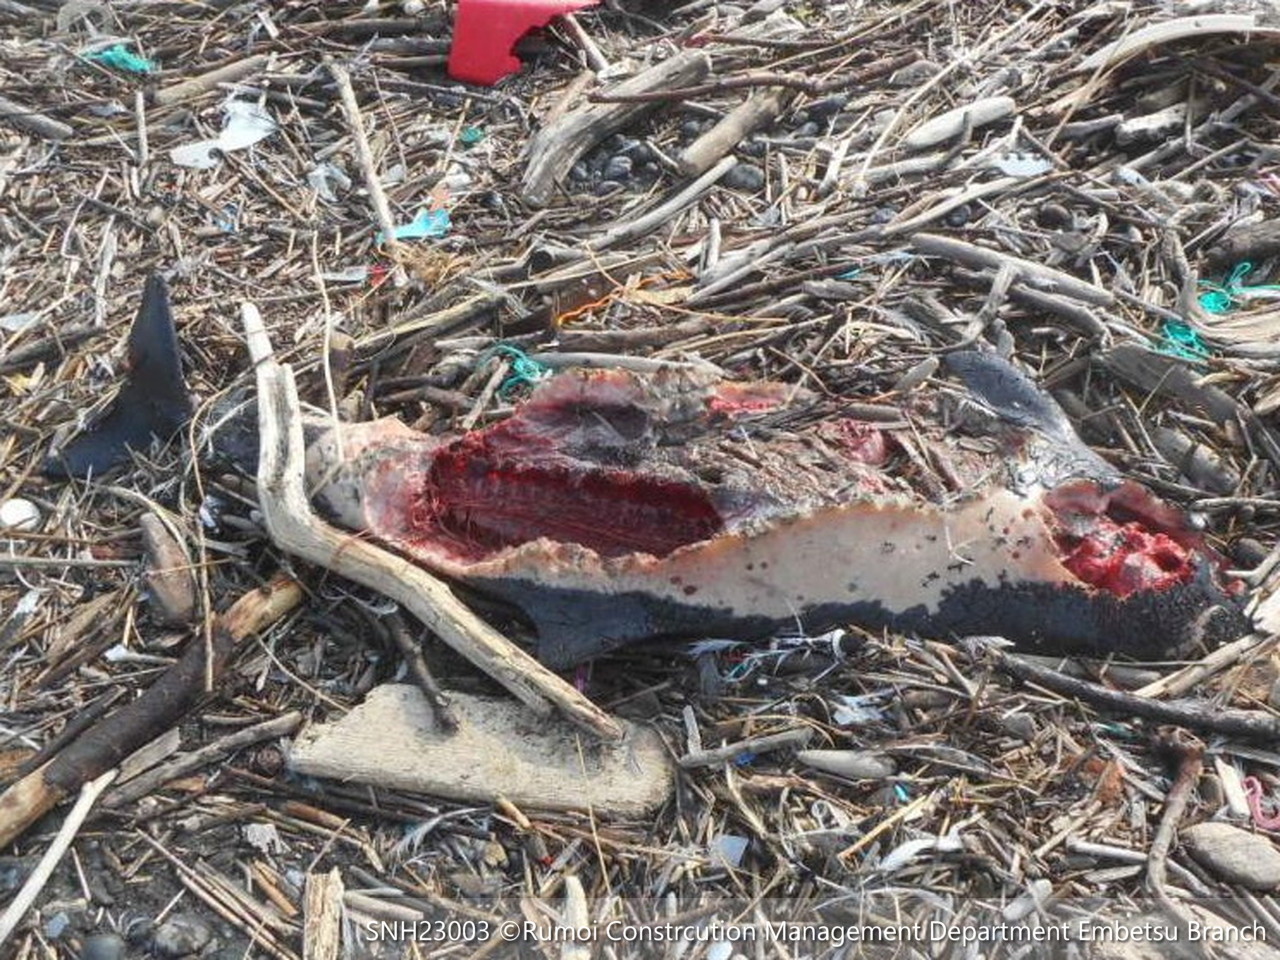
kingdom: Animalia
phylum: Chordata
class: Mammalia
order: Cetacea
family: Phocoenidae
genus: Phocoena
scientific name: Phocoena phocoena
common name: Harbour porpoise
